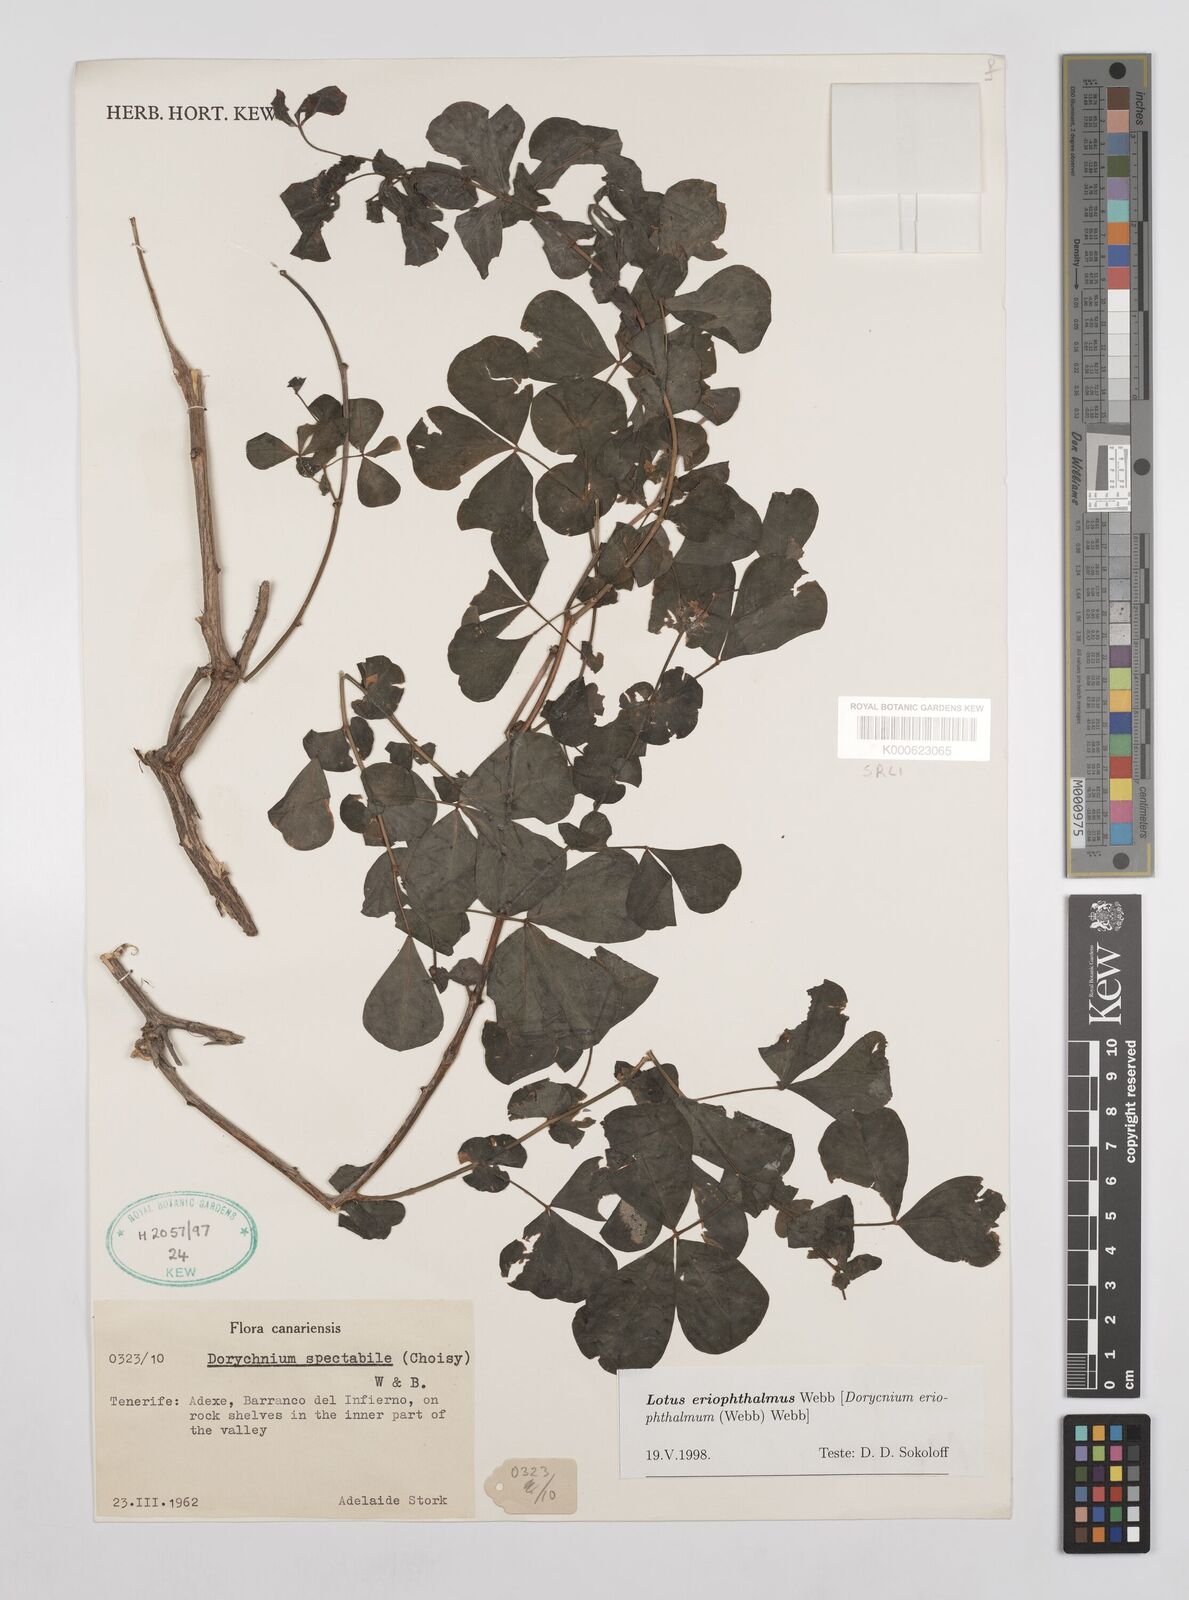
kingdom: Plantae
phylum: Tracheophyta
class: Magnoliopsida
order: Fabales
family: Fabaceae
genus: Lotus
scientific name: Lotus eriophthalmus
